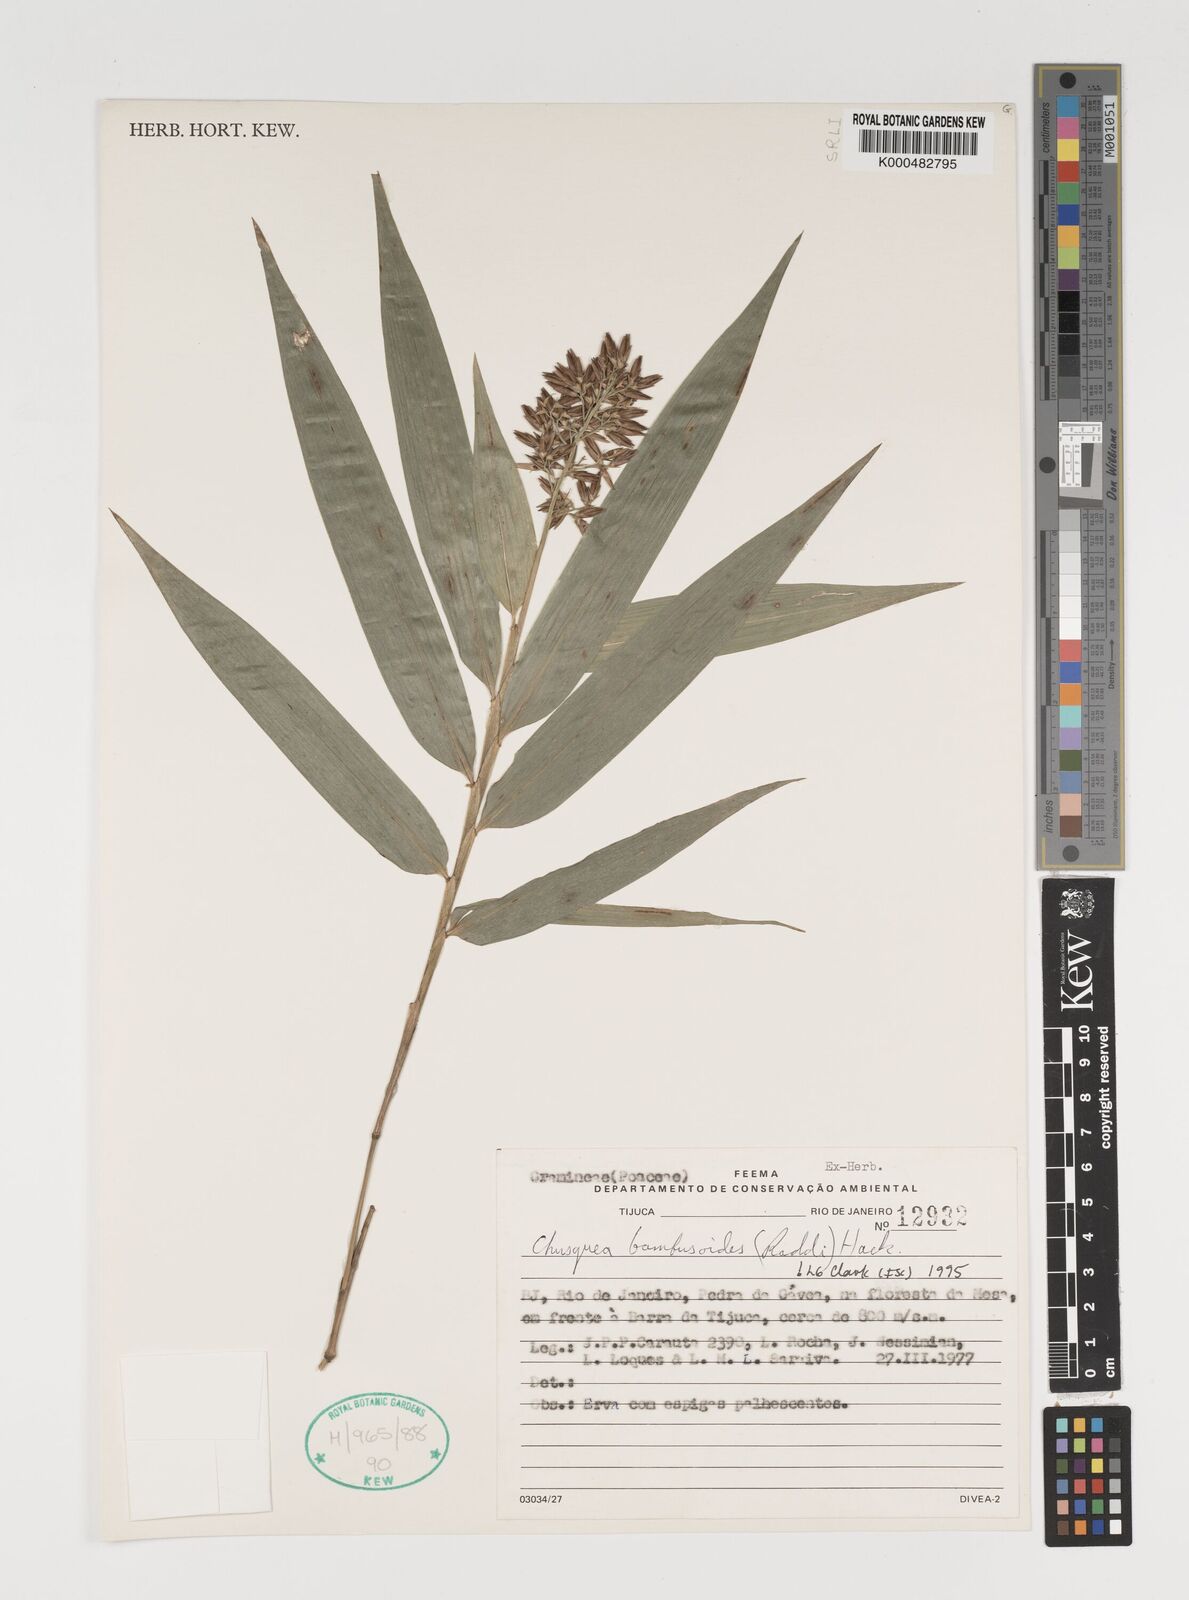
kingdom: Plantae
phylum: Tracheophyta
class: Liliopsida
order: Poales
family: Poaceae
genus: Chusquea
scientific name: Chusquea bambusoides
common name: Brazil scrambling bamboo
